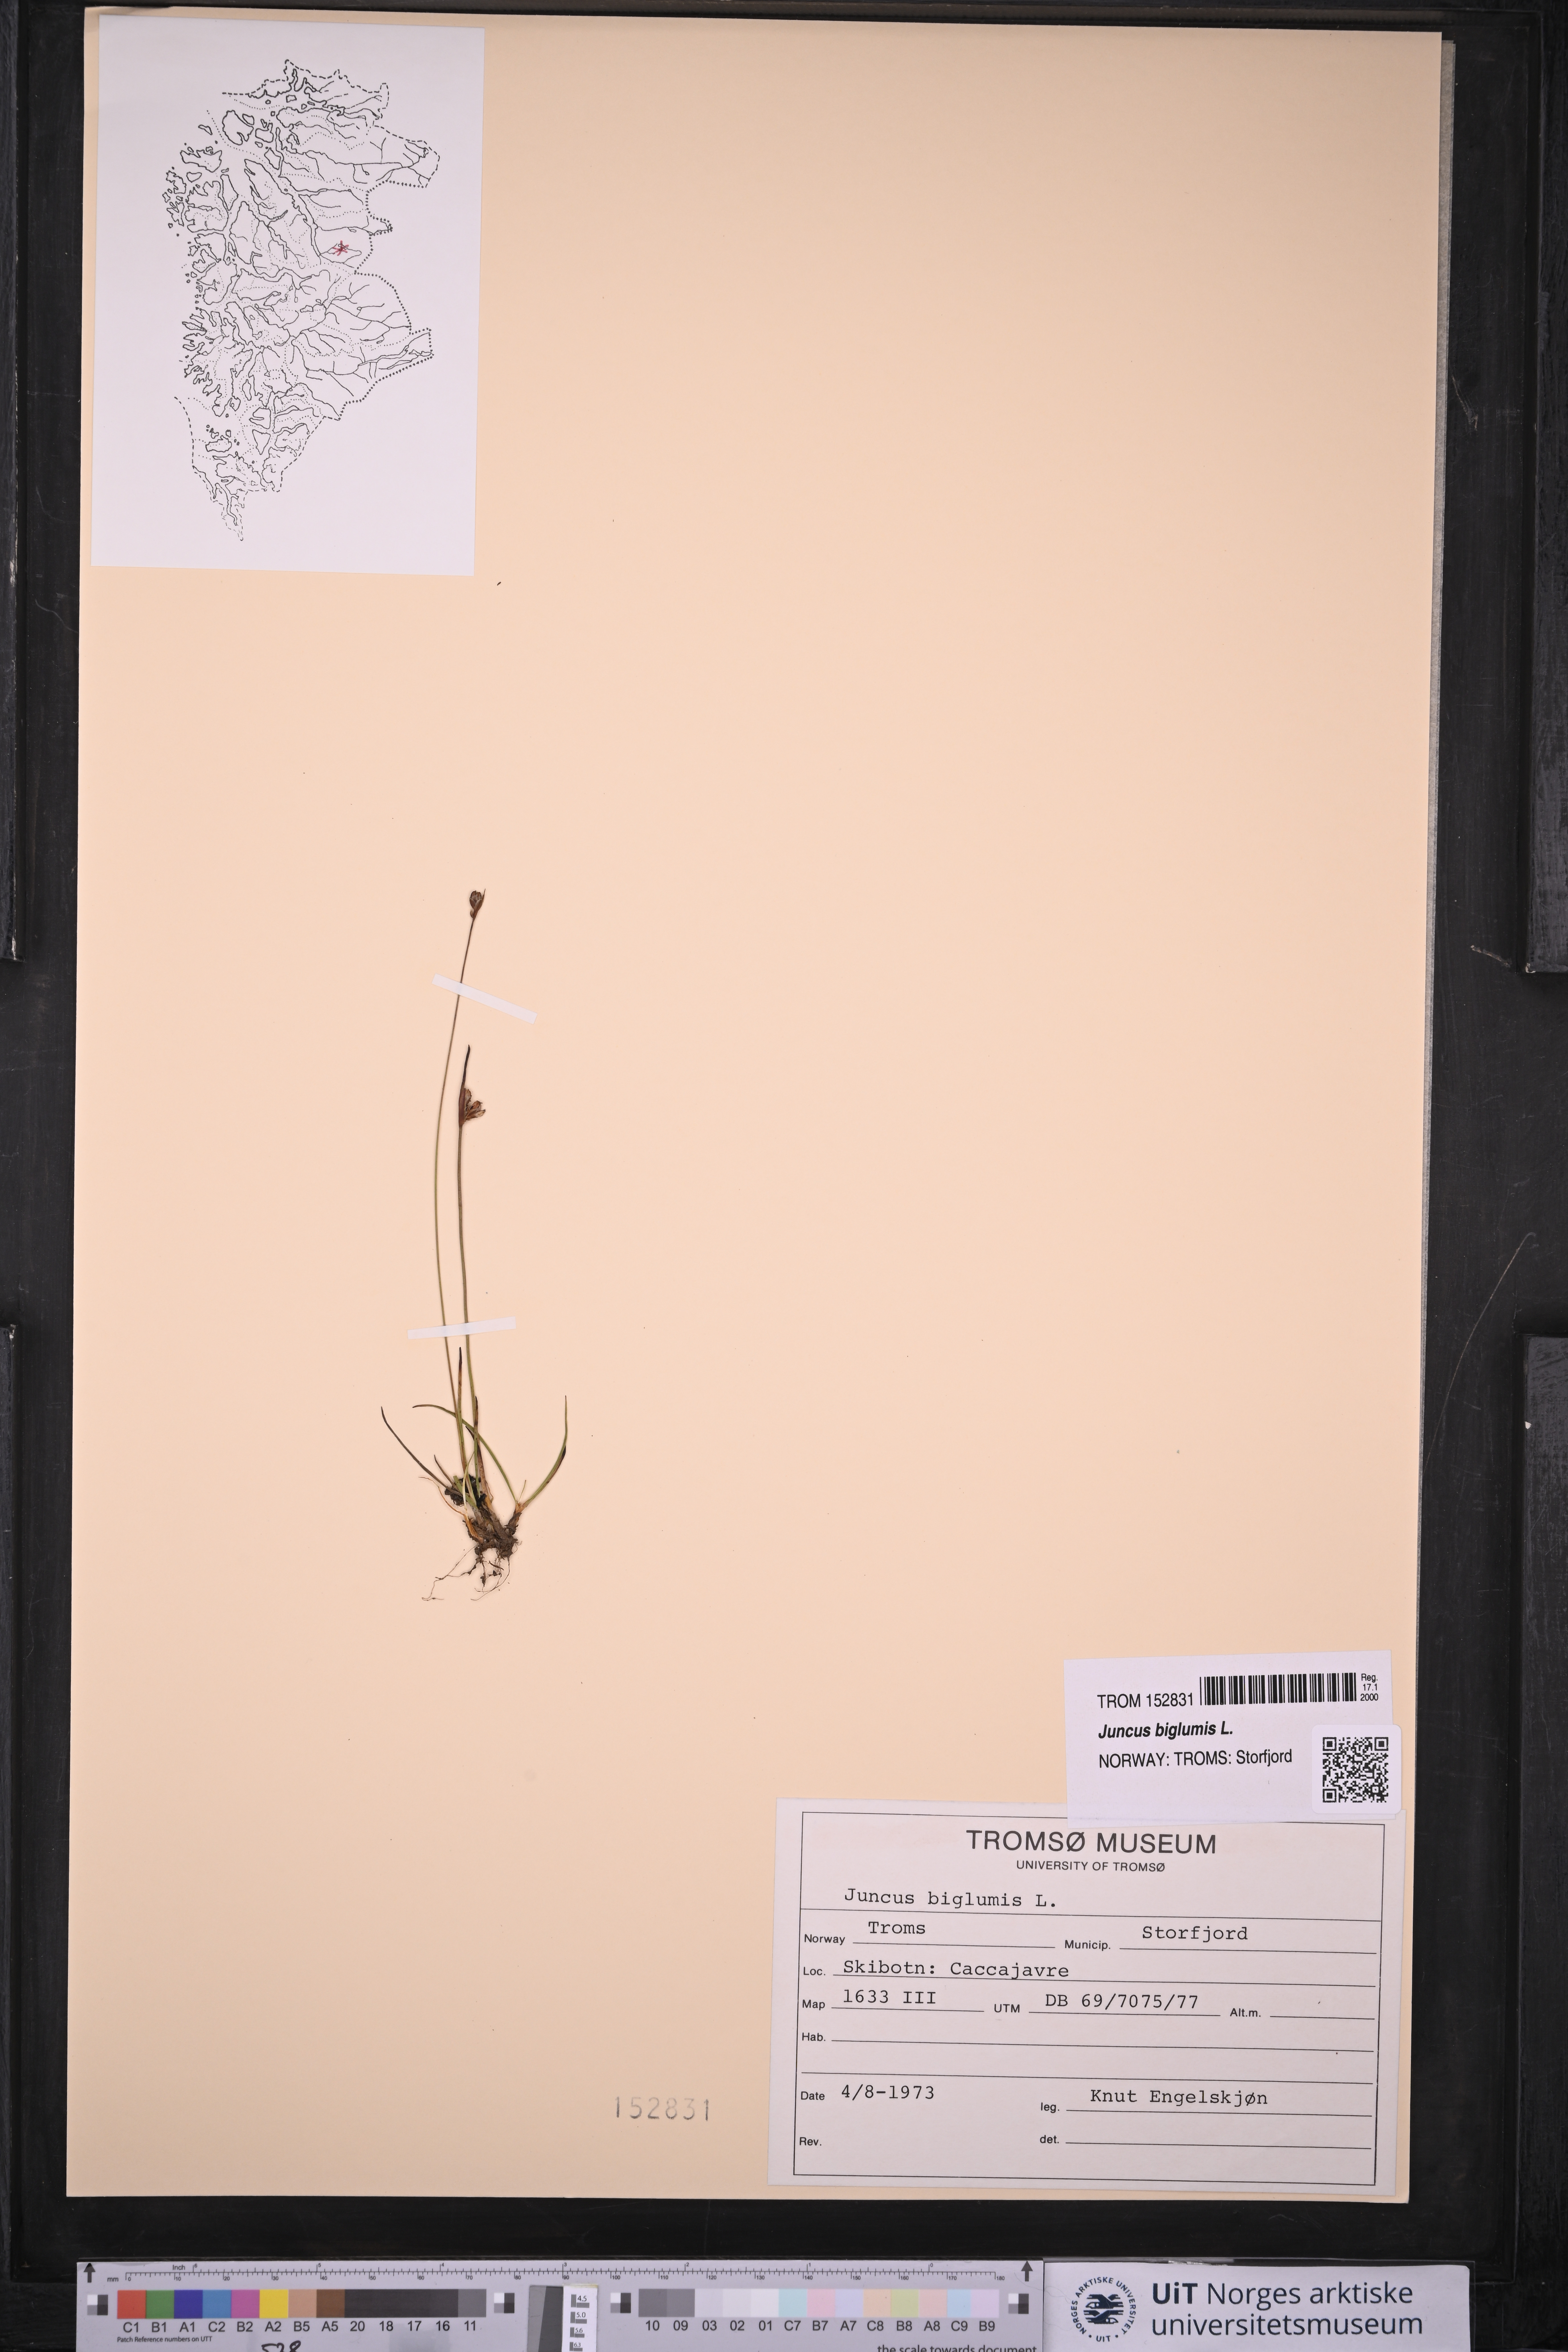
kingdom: Plantae
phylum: Tracheophyta
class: Liliopsida
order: Poales
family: Juncaceae
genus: Juncus
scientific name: Juncus biglumis
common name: Two-flowered rush
